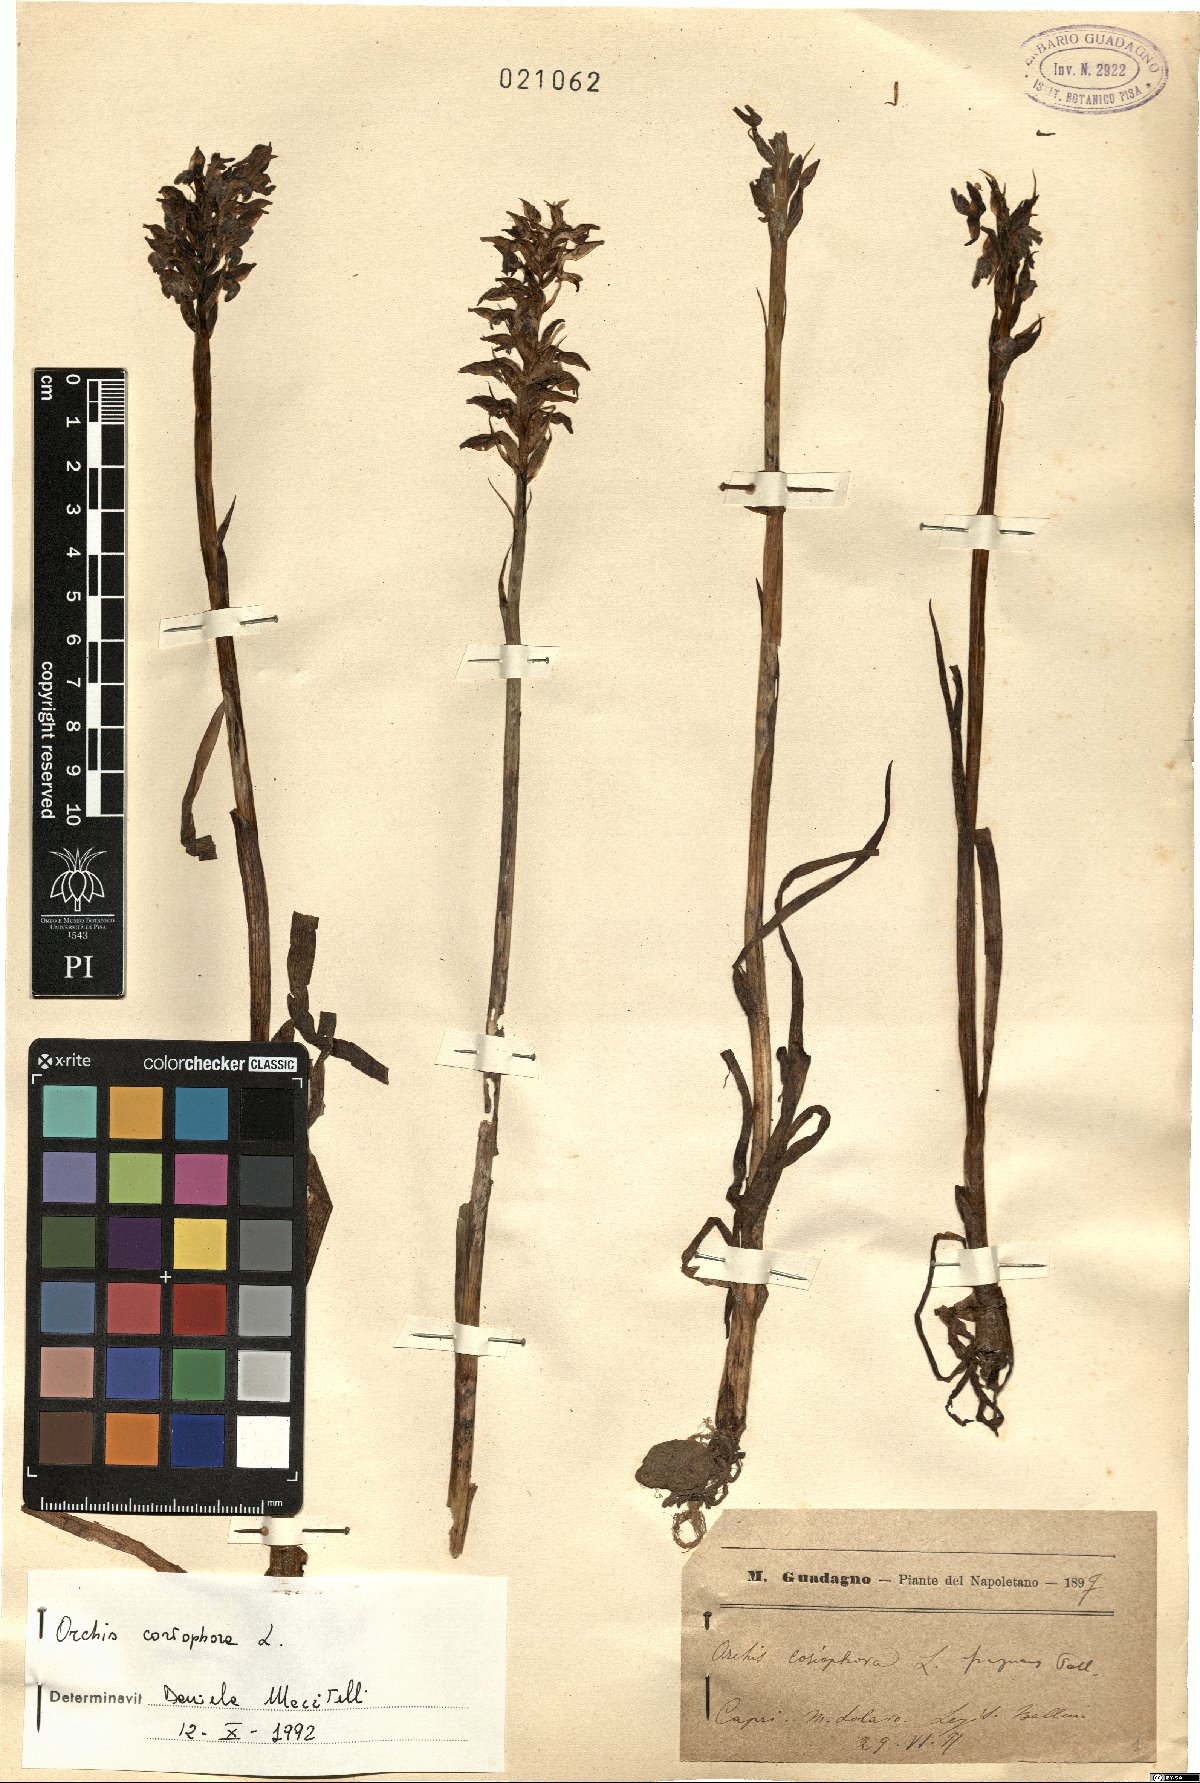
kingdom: Plantae
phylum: Tracheophyta
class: Liliopsida
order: Asparagales
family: Orchidaceae
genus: Anacamptis
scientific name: Anacamptis coriophora
